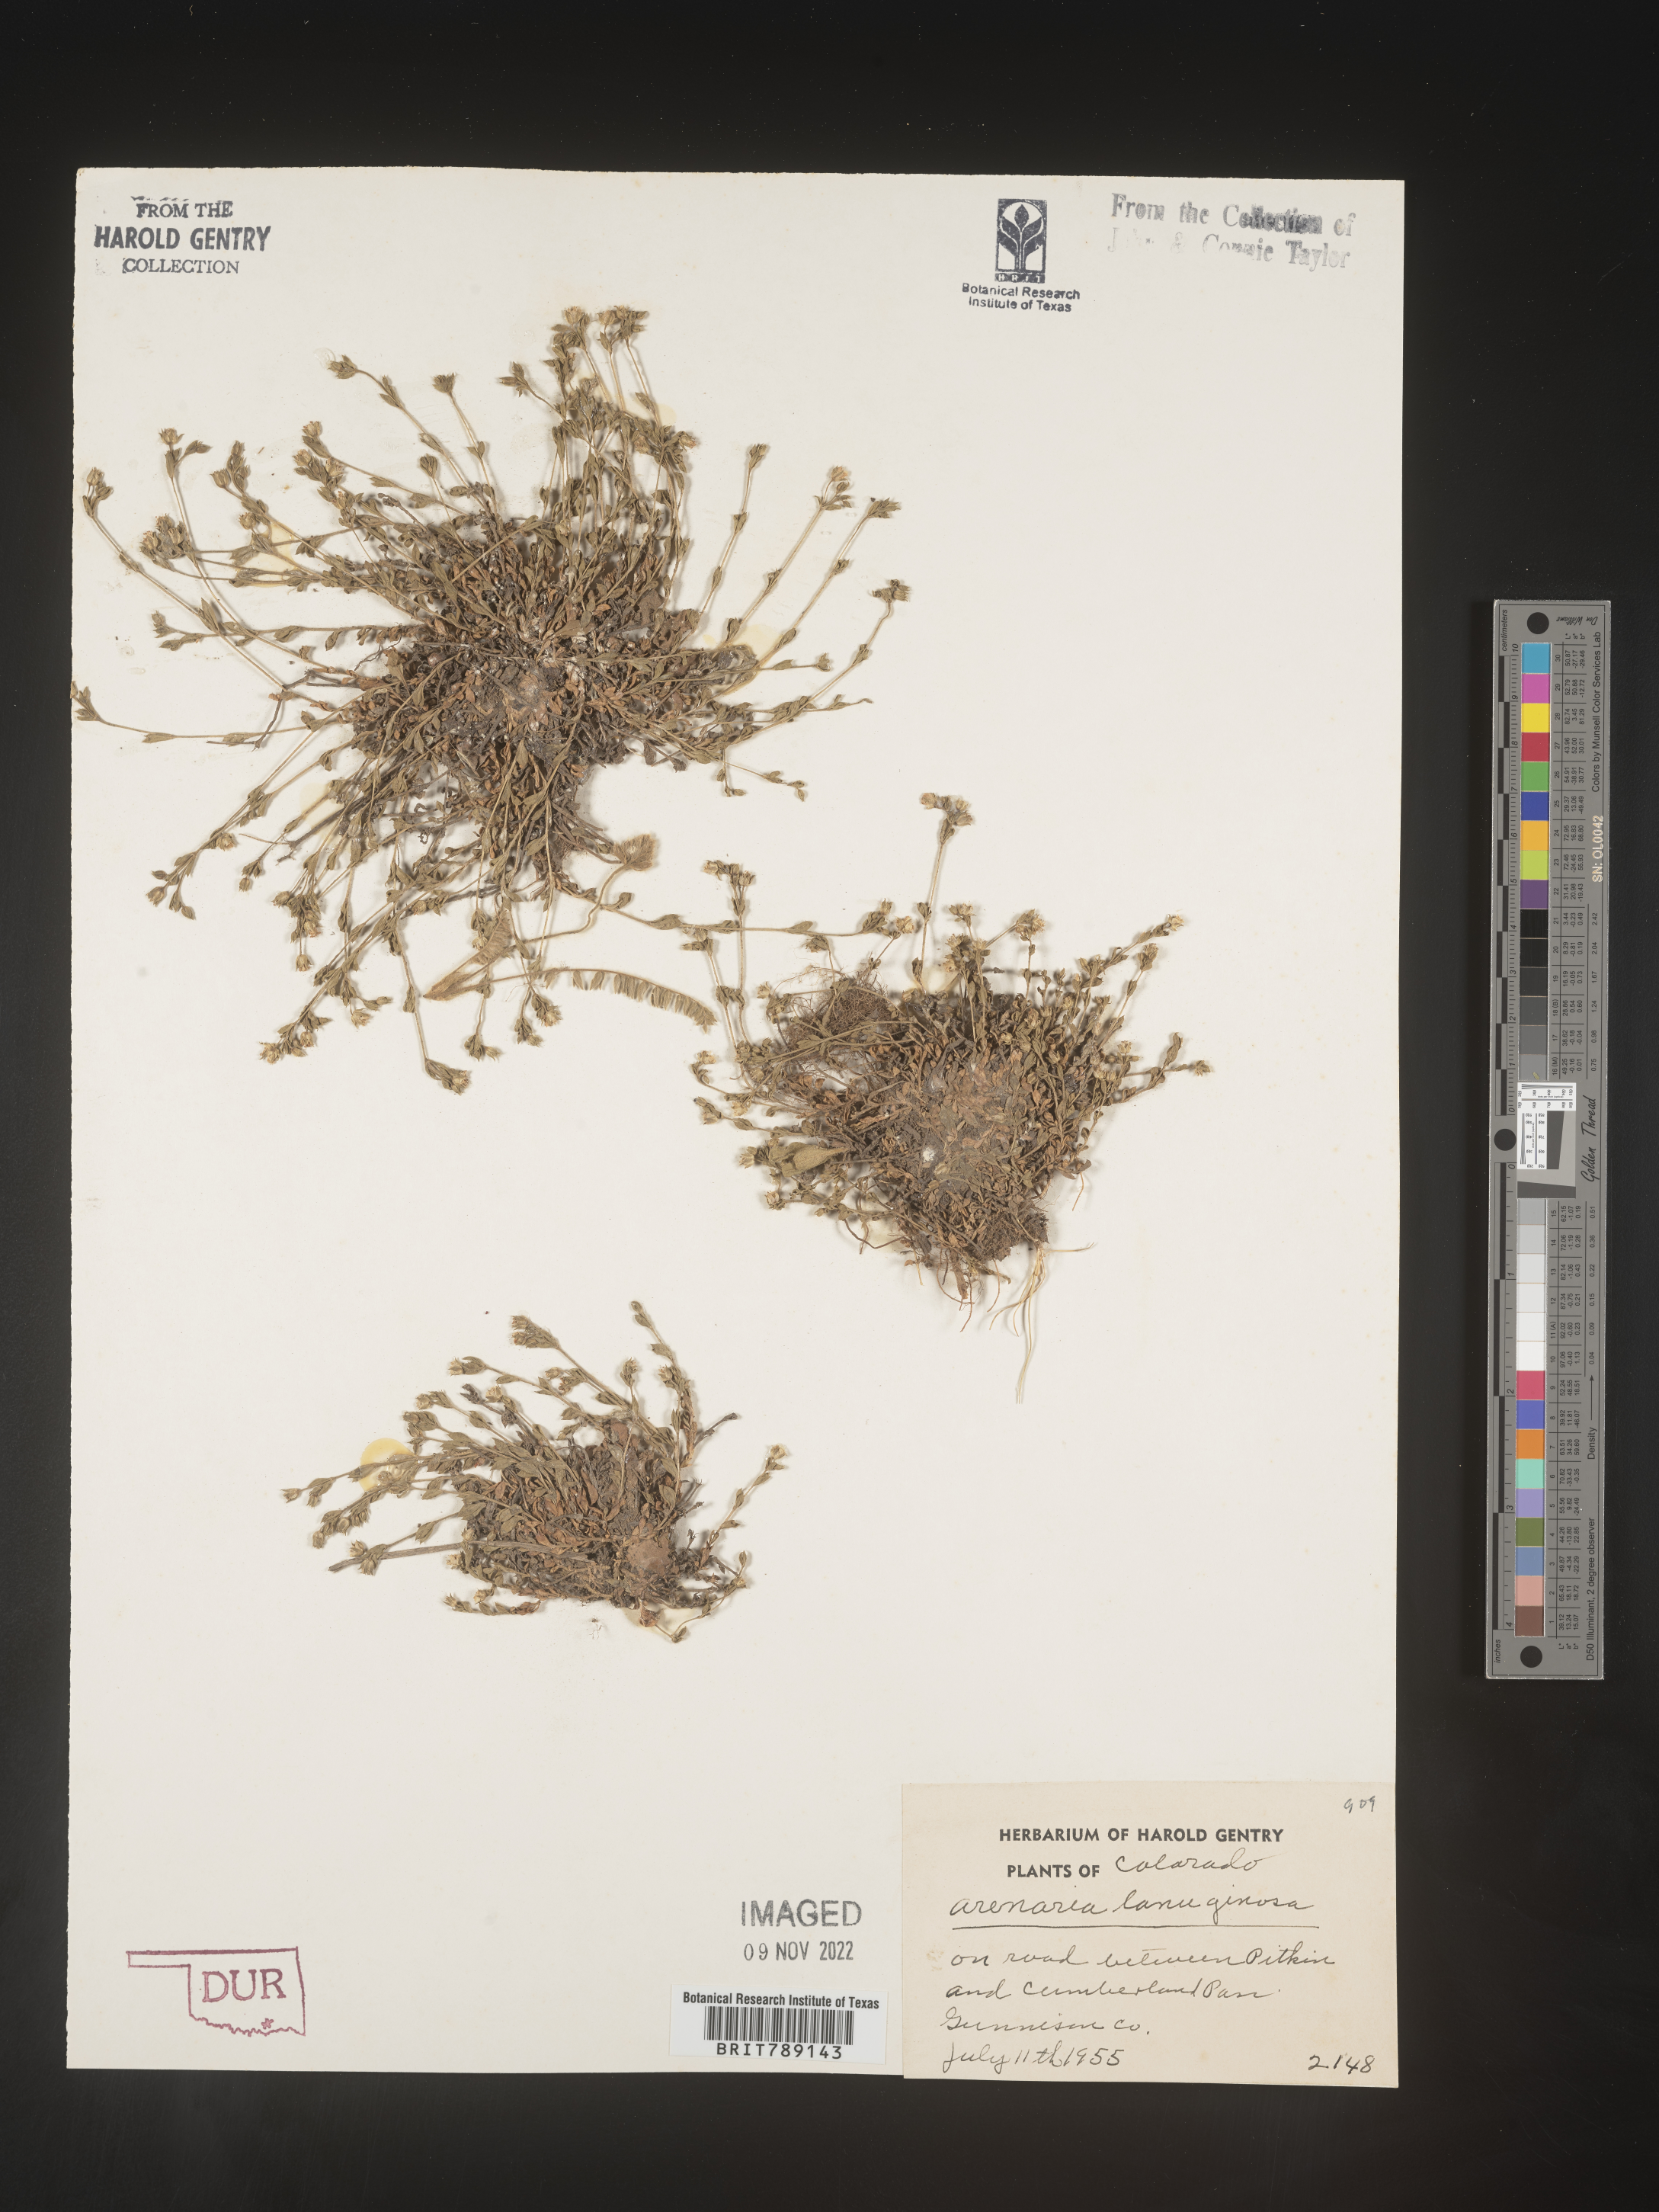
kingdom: Plantae
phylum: Tracheophyta
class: Magnoliopsida
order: Caryophyllales
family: Caryophyllaceae
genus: Arenaria
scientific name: Arenaria
